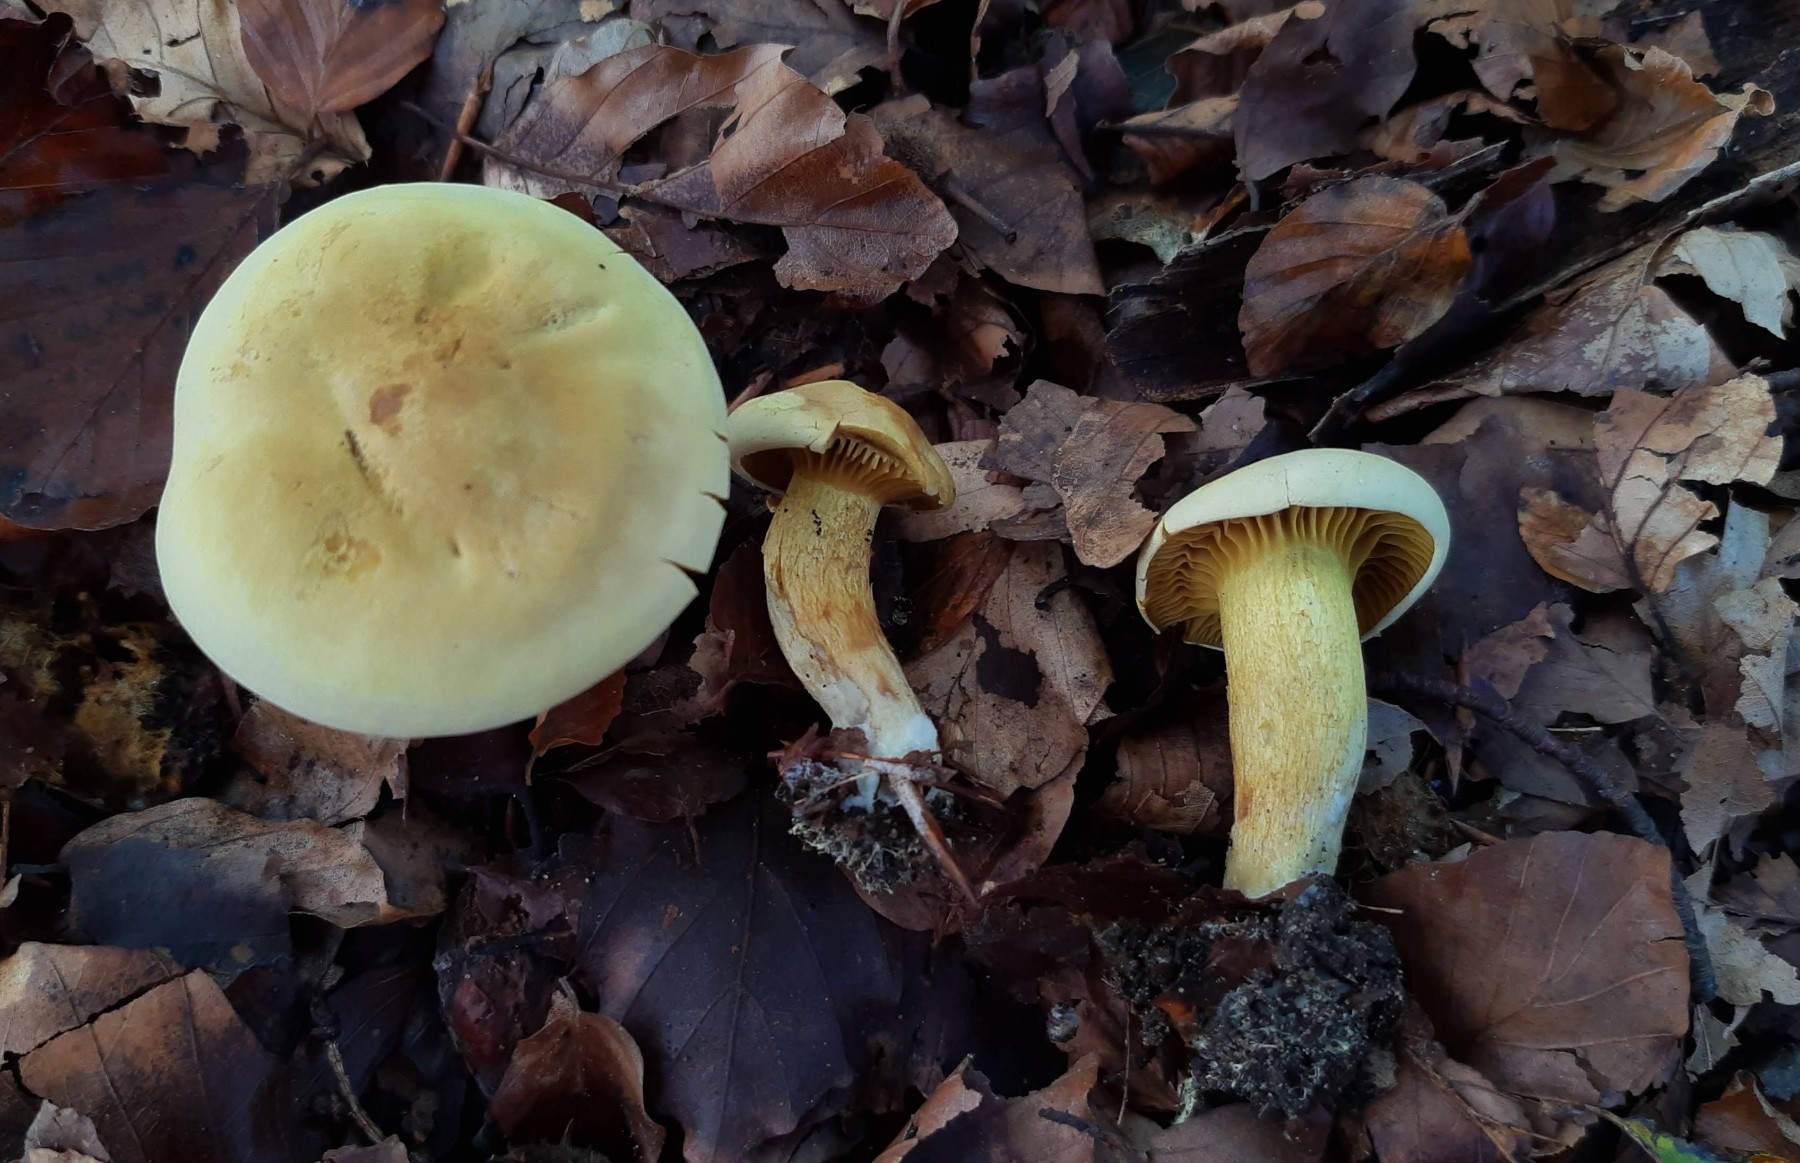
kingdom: Fungi
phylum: Basidiomycota
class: Agaricomycetes
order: Agaricales
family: Tricholomataceae
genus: Tricholoma
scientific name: Tricholoma sulphureum
